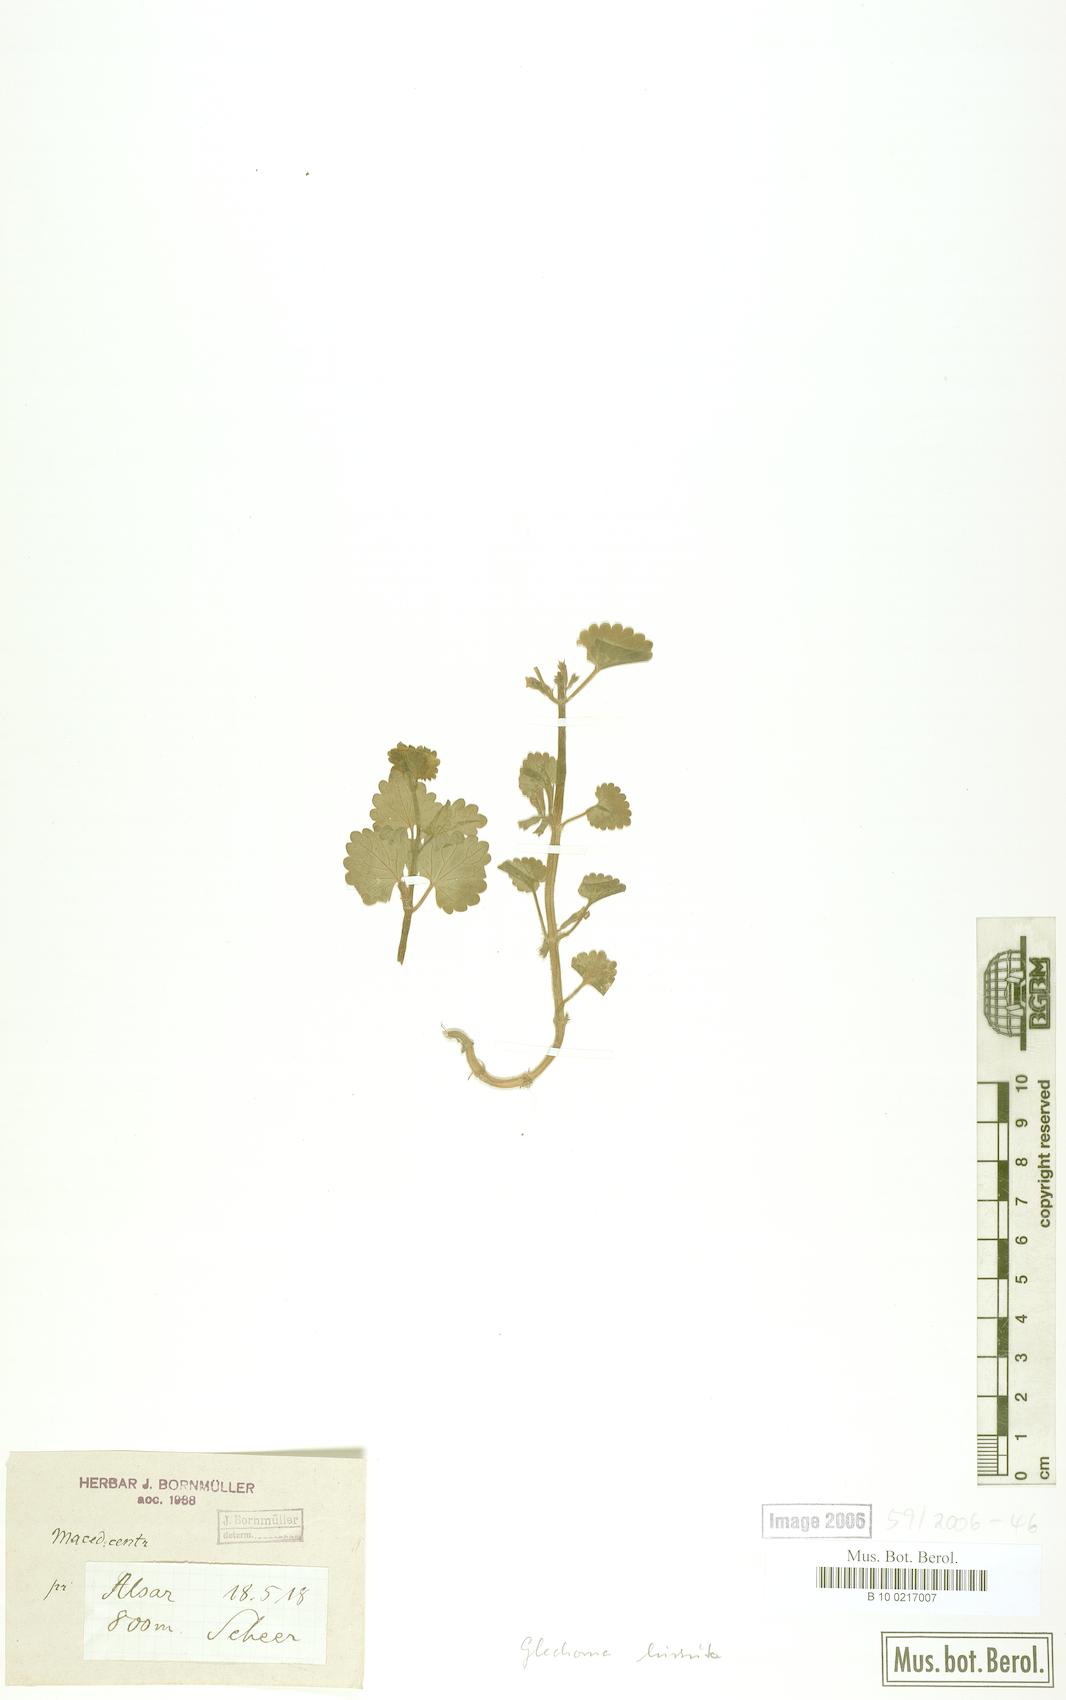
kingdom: Plantae
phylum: Tracheophyta
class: Magnoliopsida
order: Lamiales
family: Lamiaceae
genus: Glechoma
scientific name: Glechoma hirsuta
